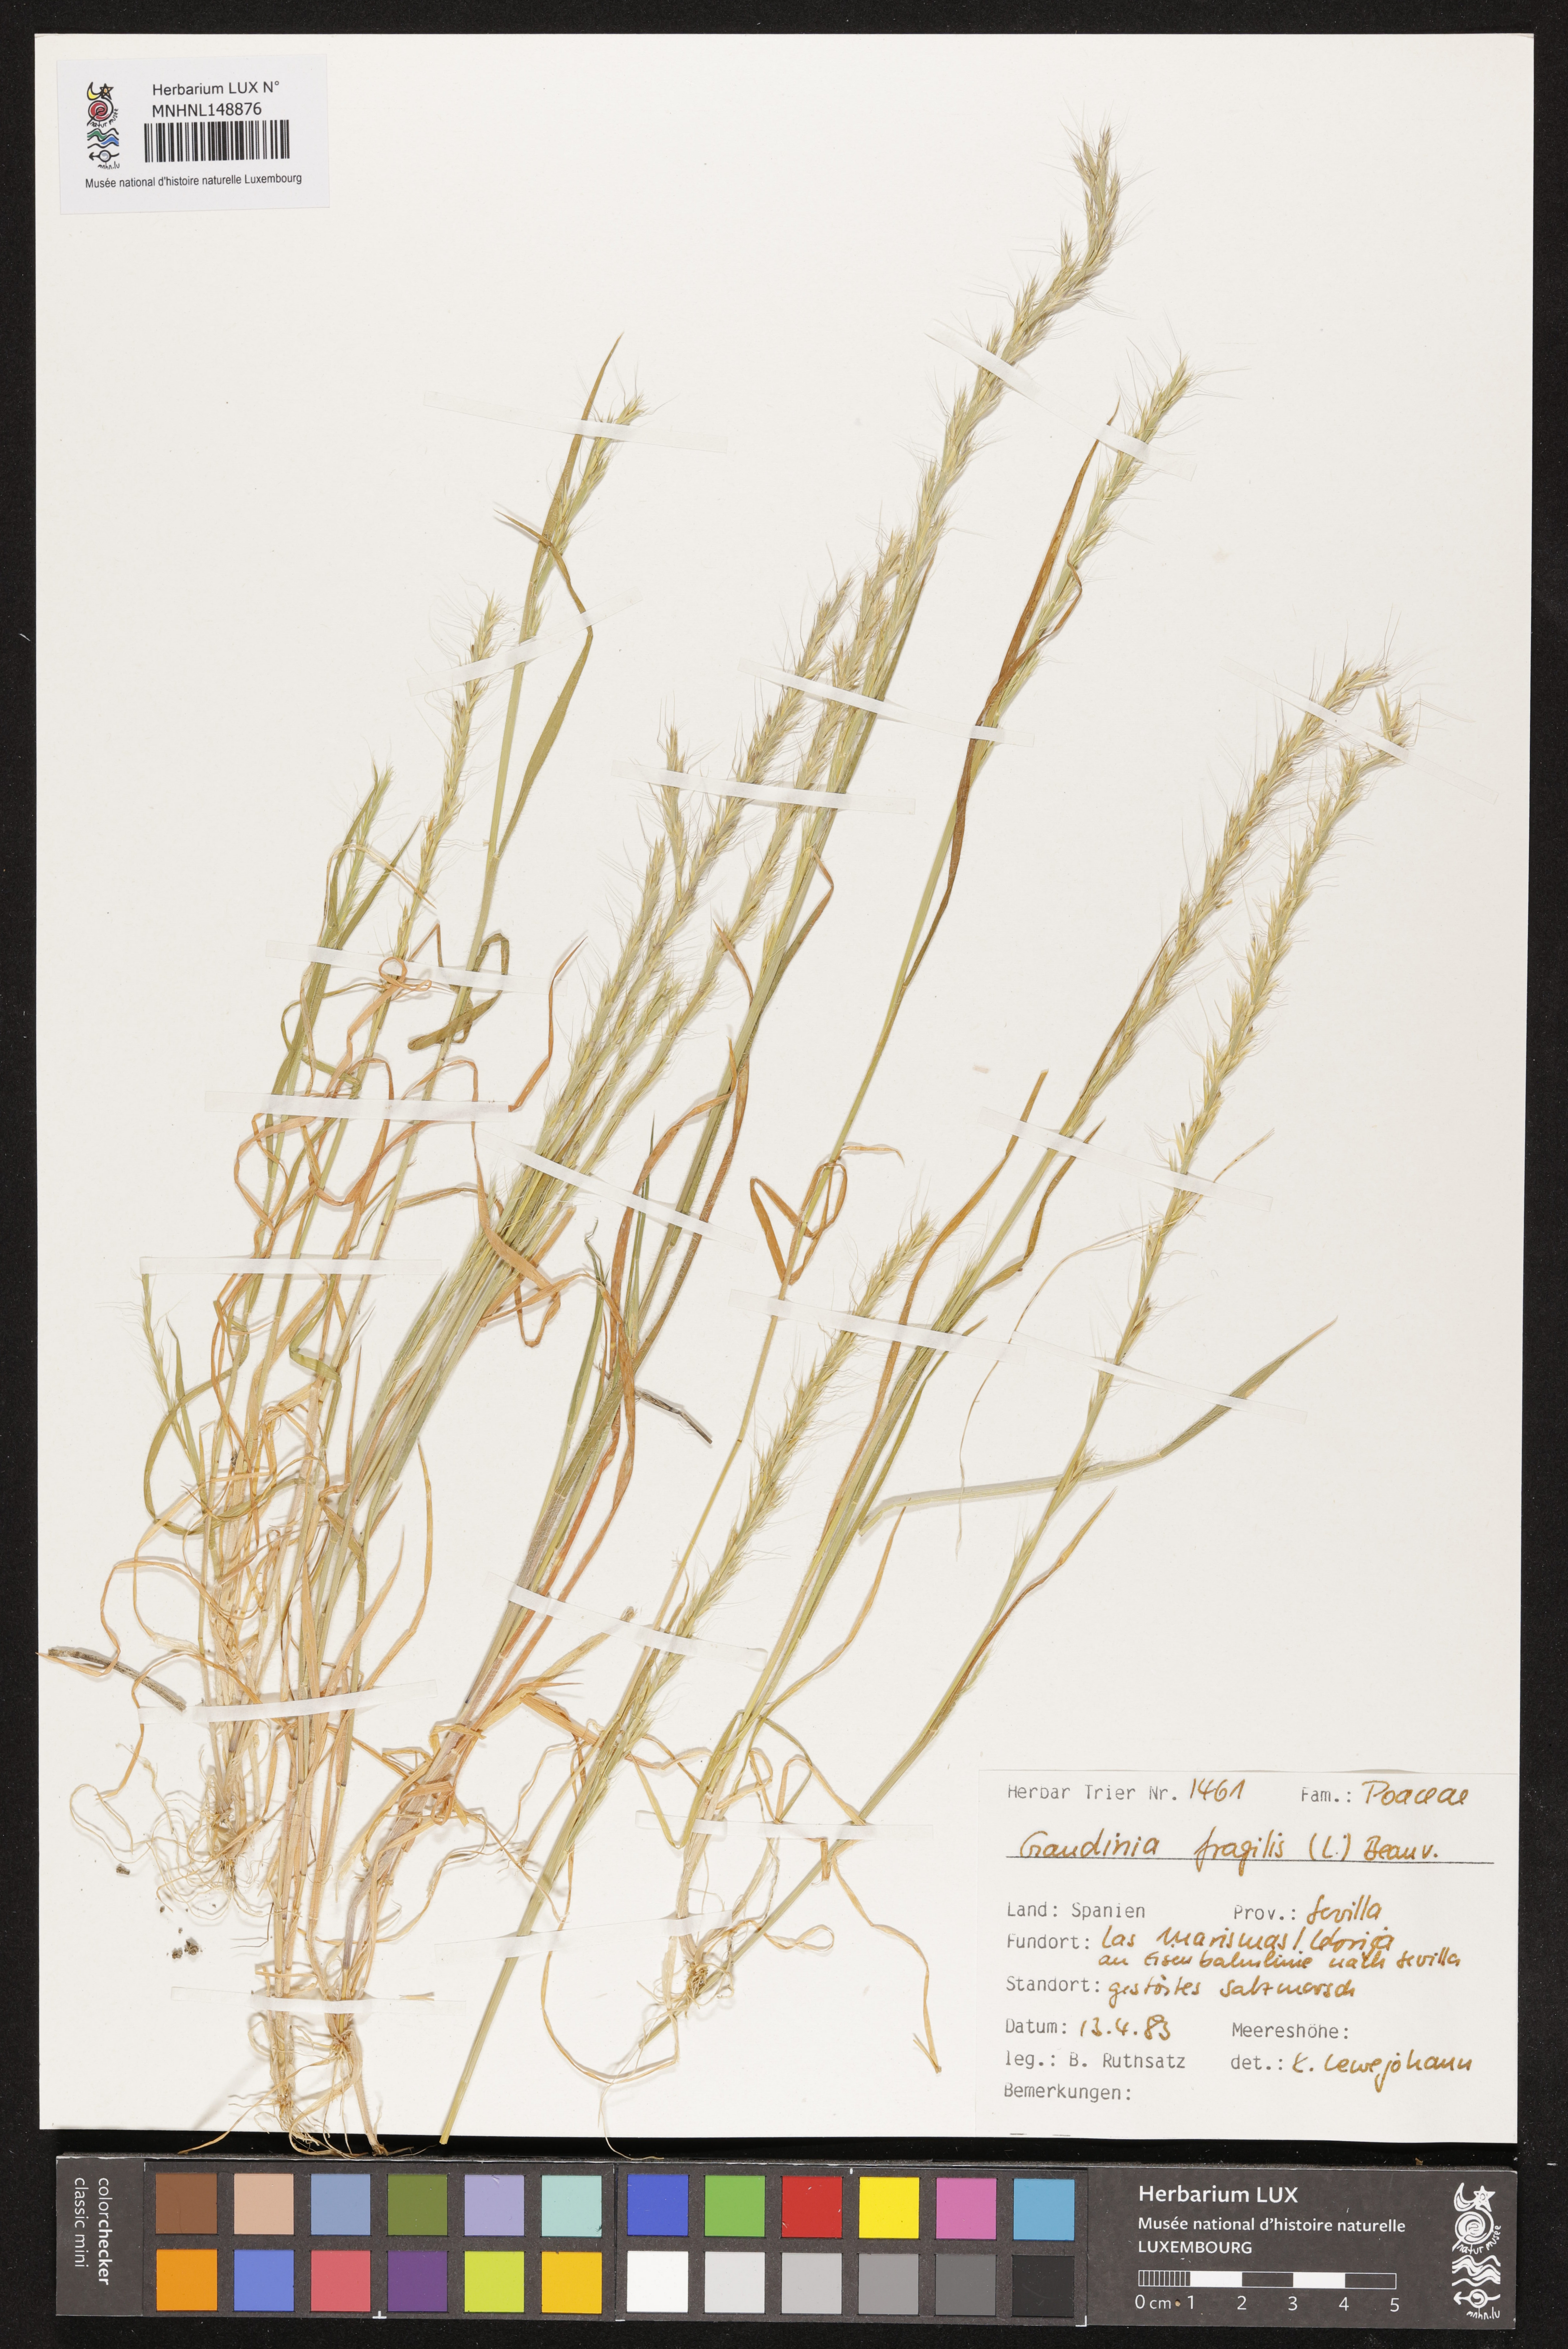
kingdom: Plantae
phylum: Tracheophyta
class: Liliopsida
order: Poales
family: Poaceae
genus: Gaudinia
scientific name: Gaudinia fragilis
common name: French oat-grass
